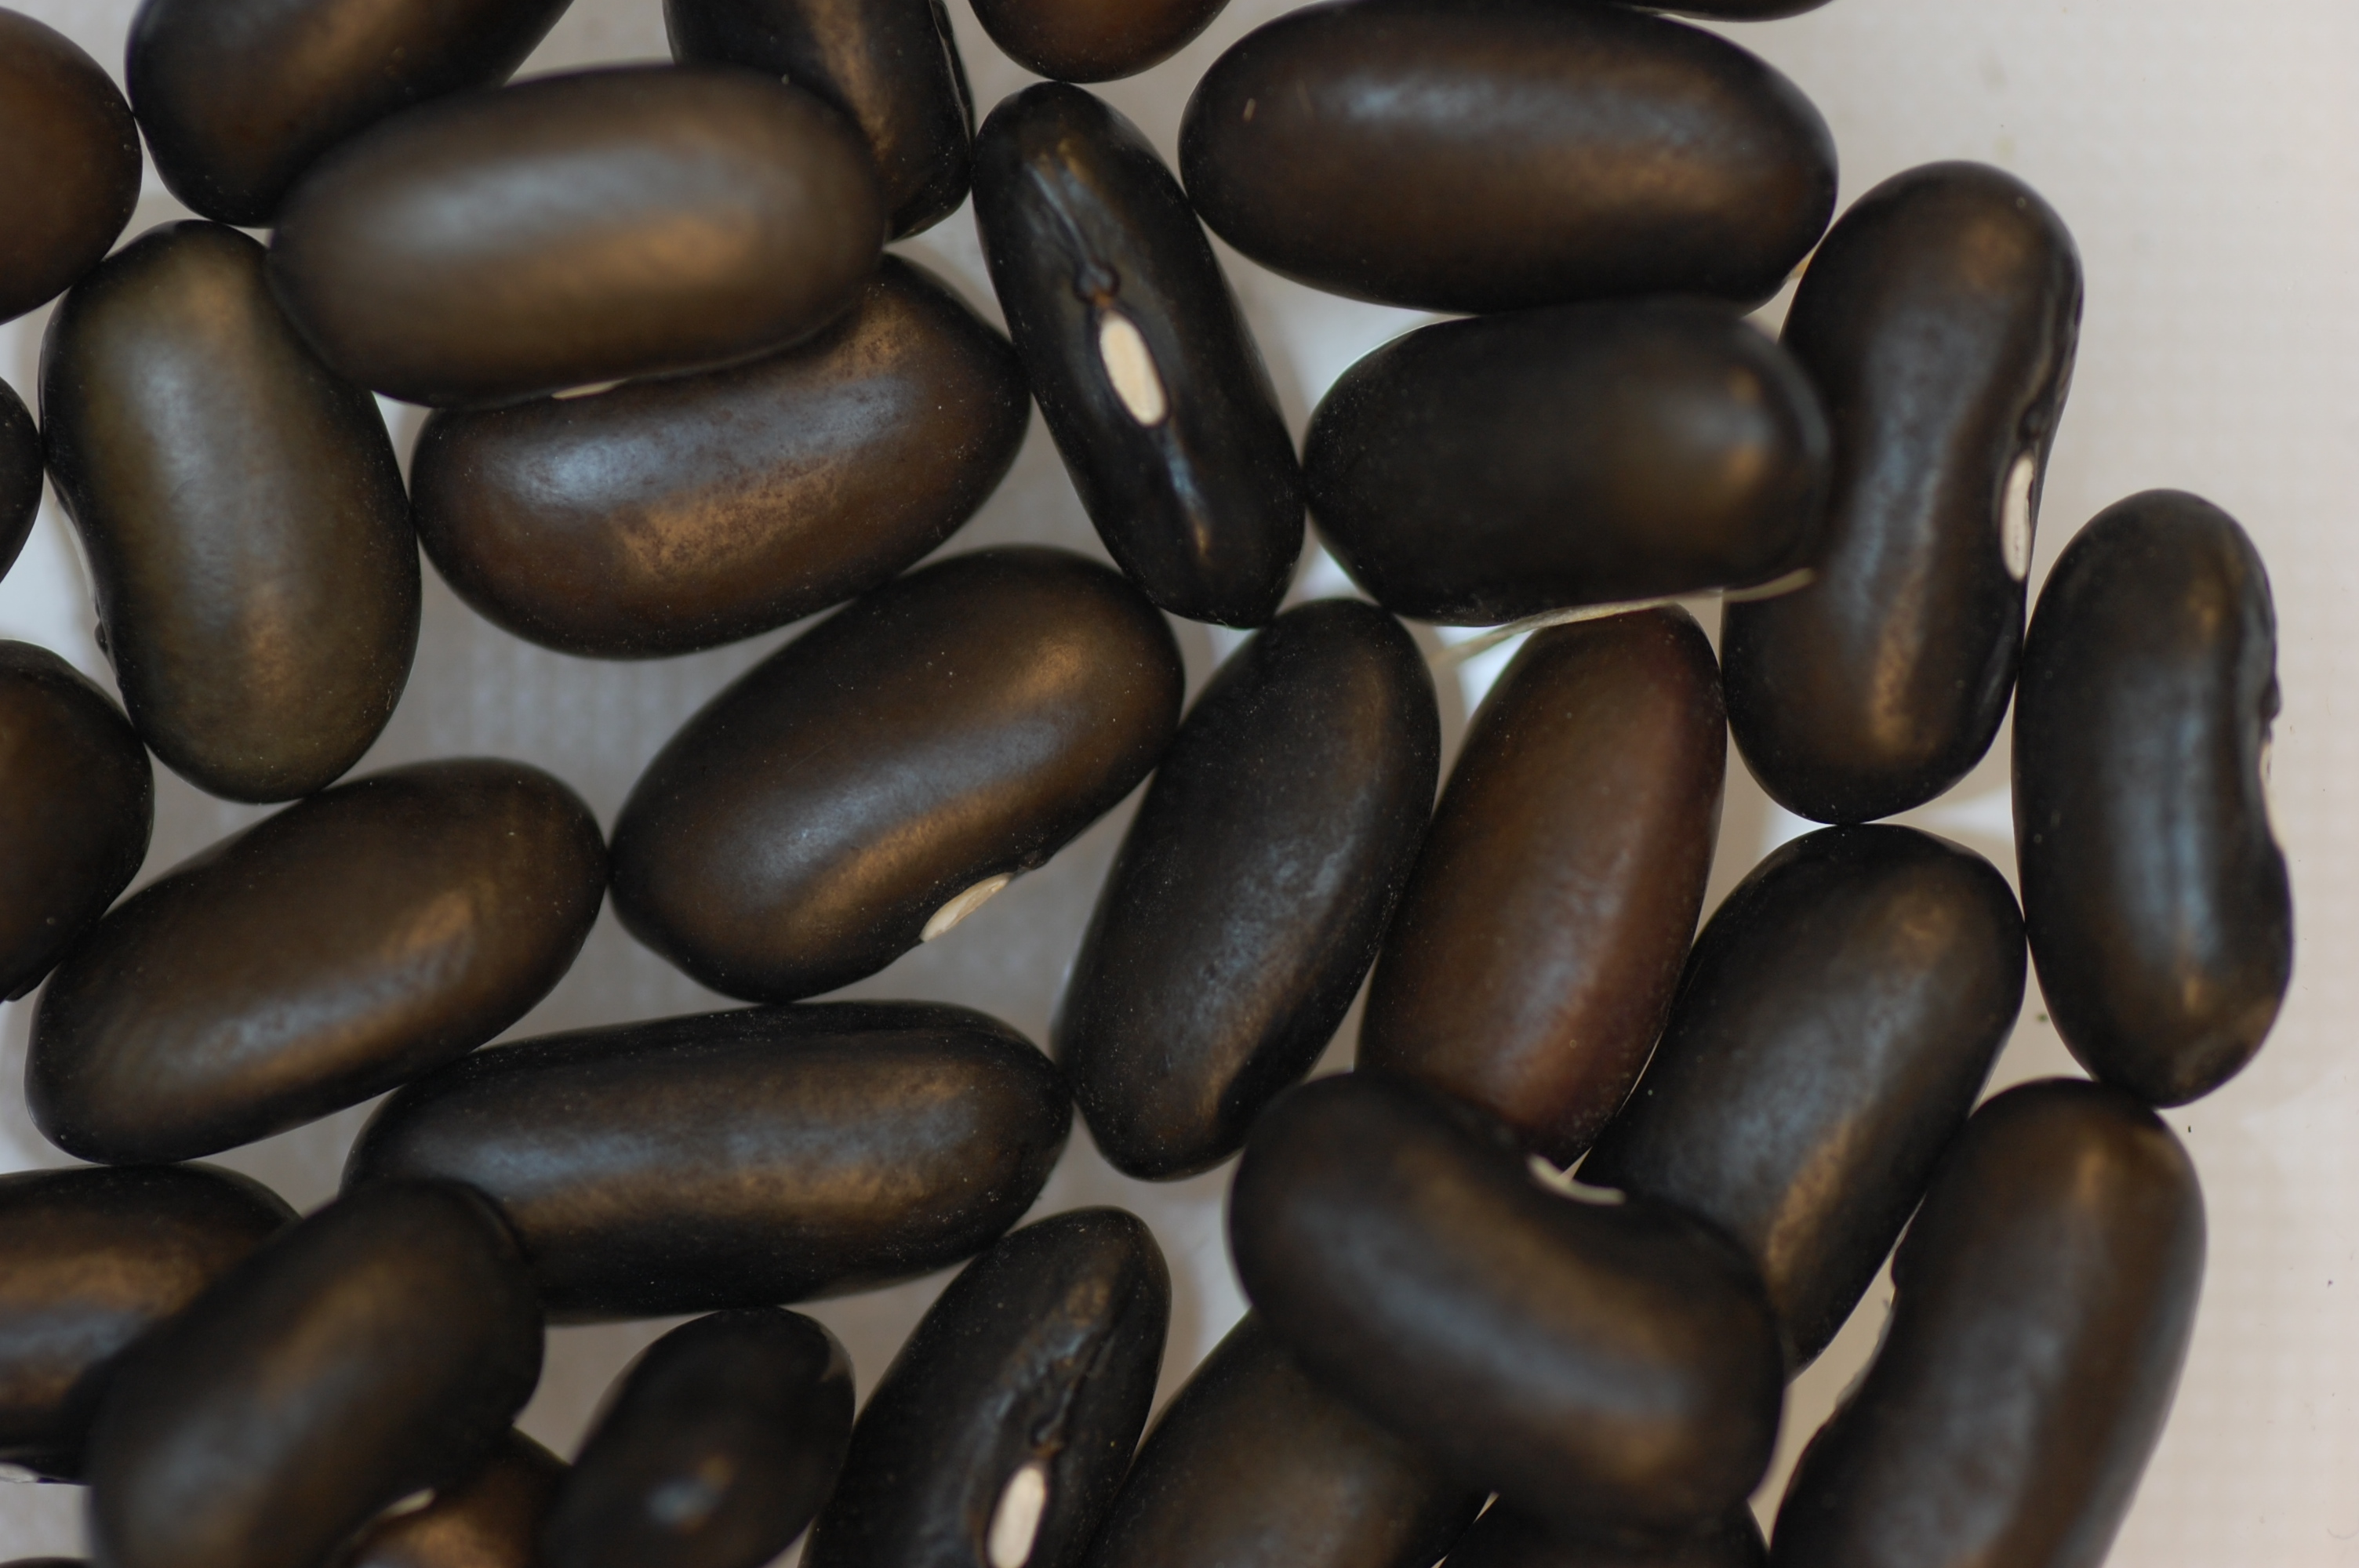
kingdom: Plantae
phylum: Tracheophyta
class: Magnoliopsida
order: Fabales
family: Fabaceae
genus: Phaseolus
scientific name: Phaseolus vulgaris
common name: Bean
